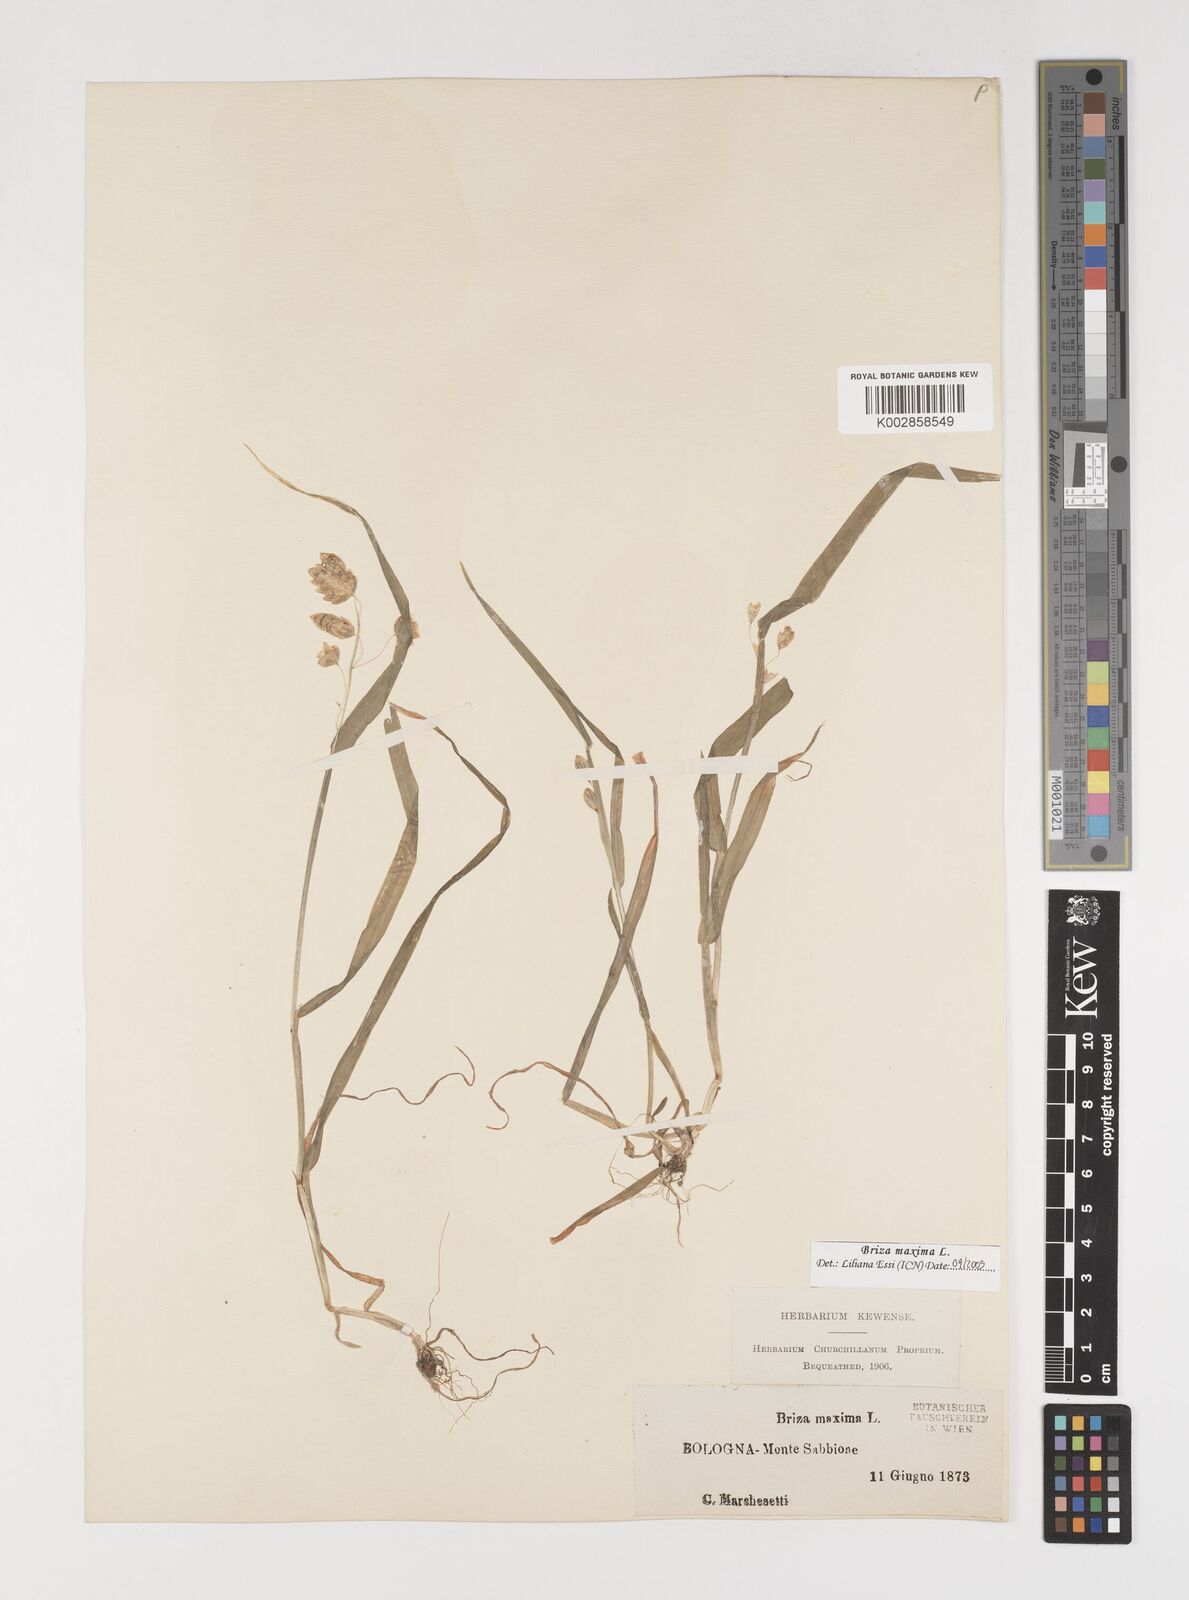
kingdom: Plantae
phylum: Tracheophyta
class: Liliopsida
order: Poales
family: Poaceae
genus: Briza
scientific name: Briza maxima
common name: Big quakinggrass
